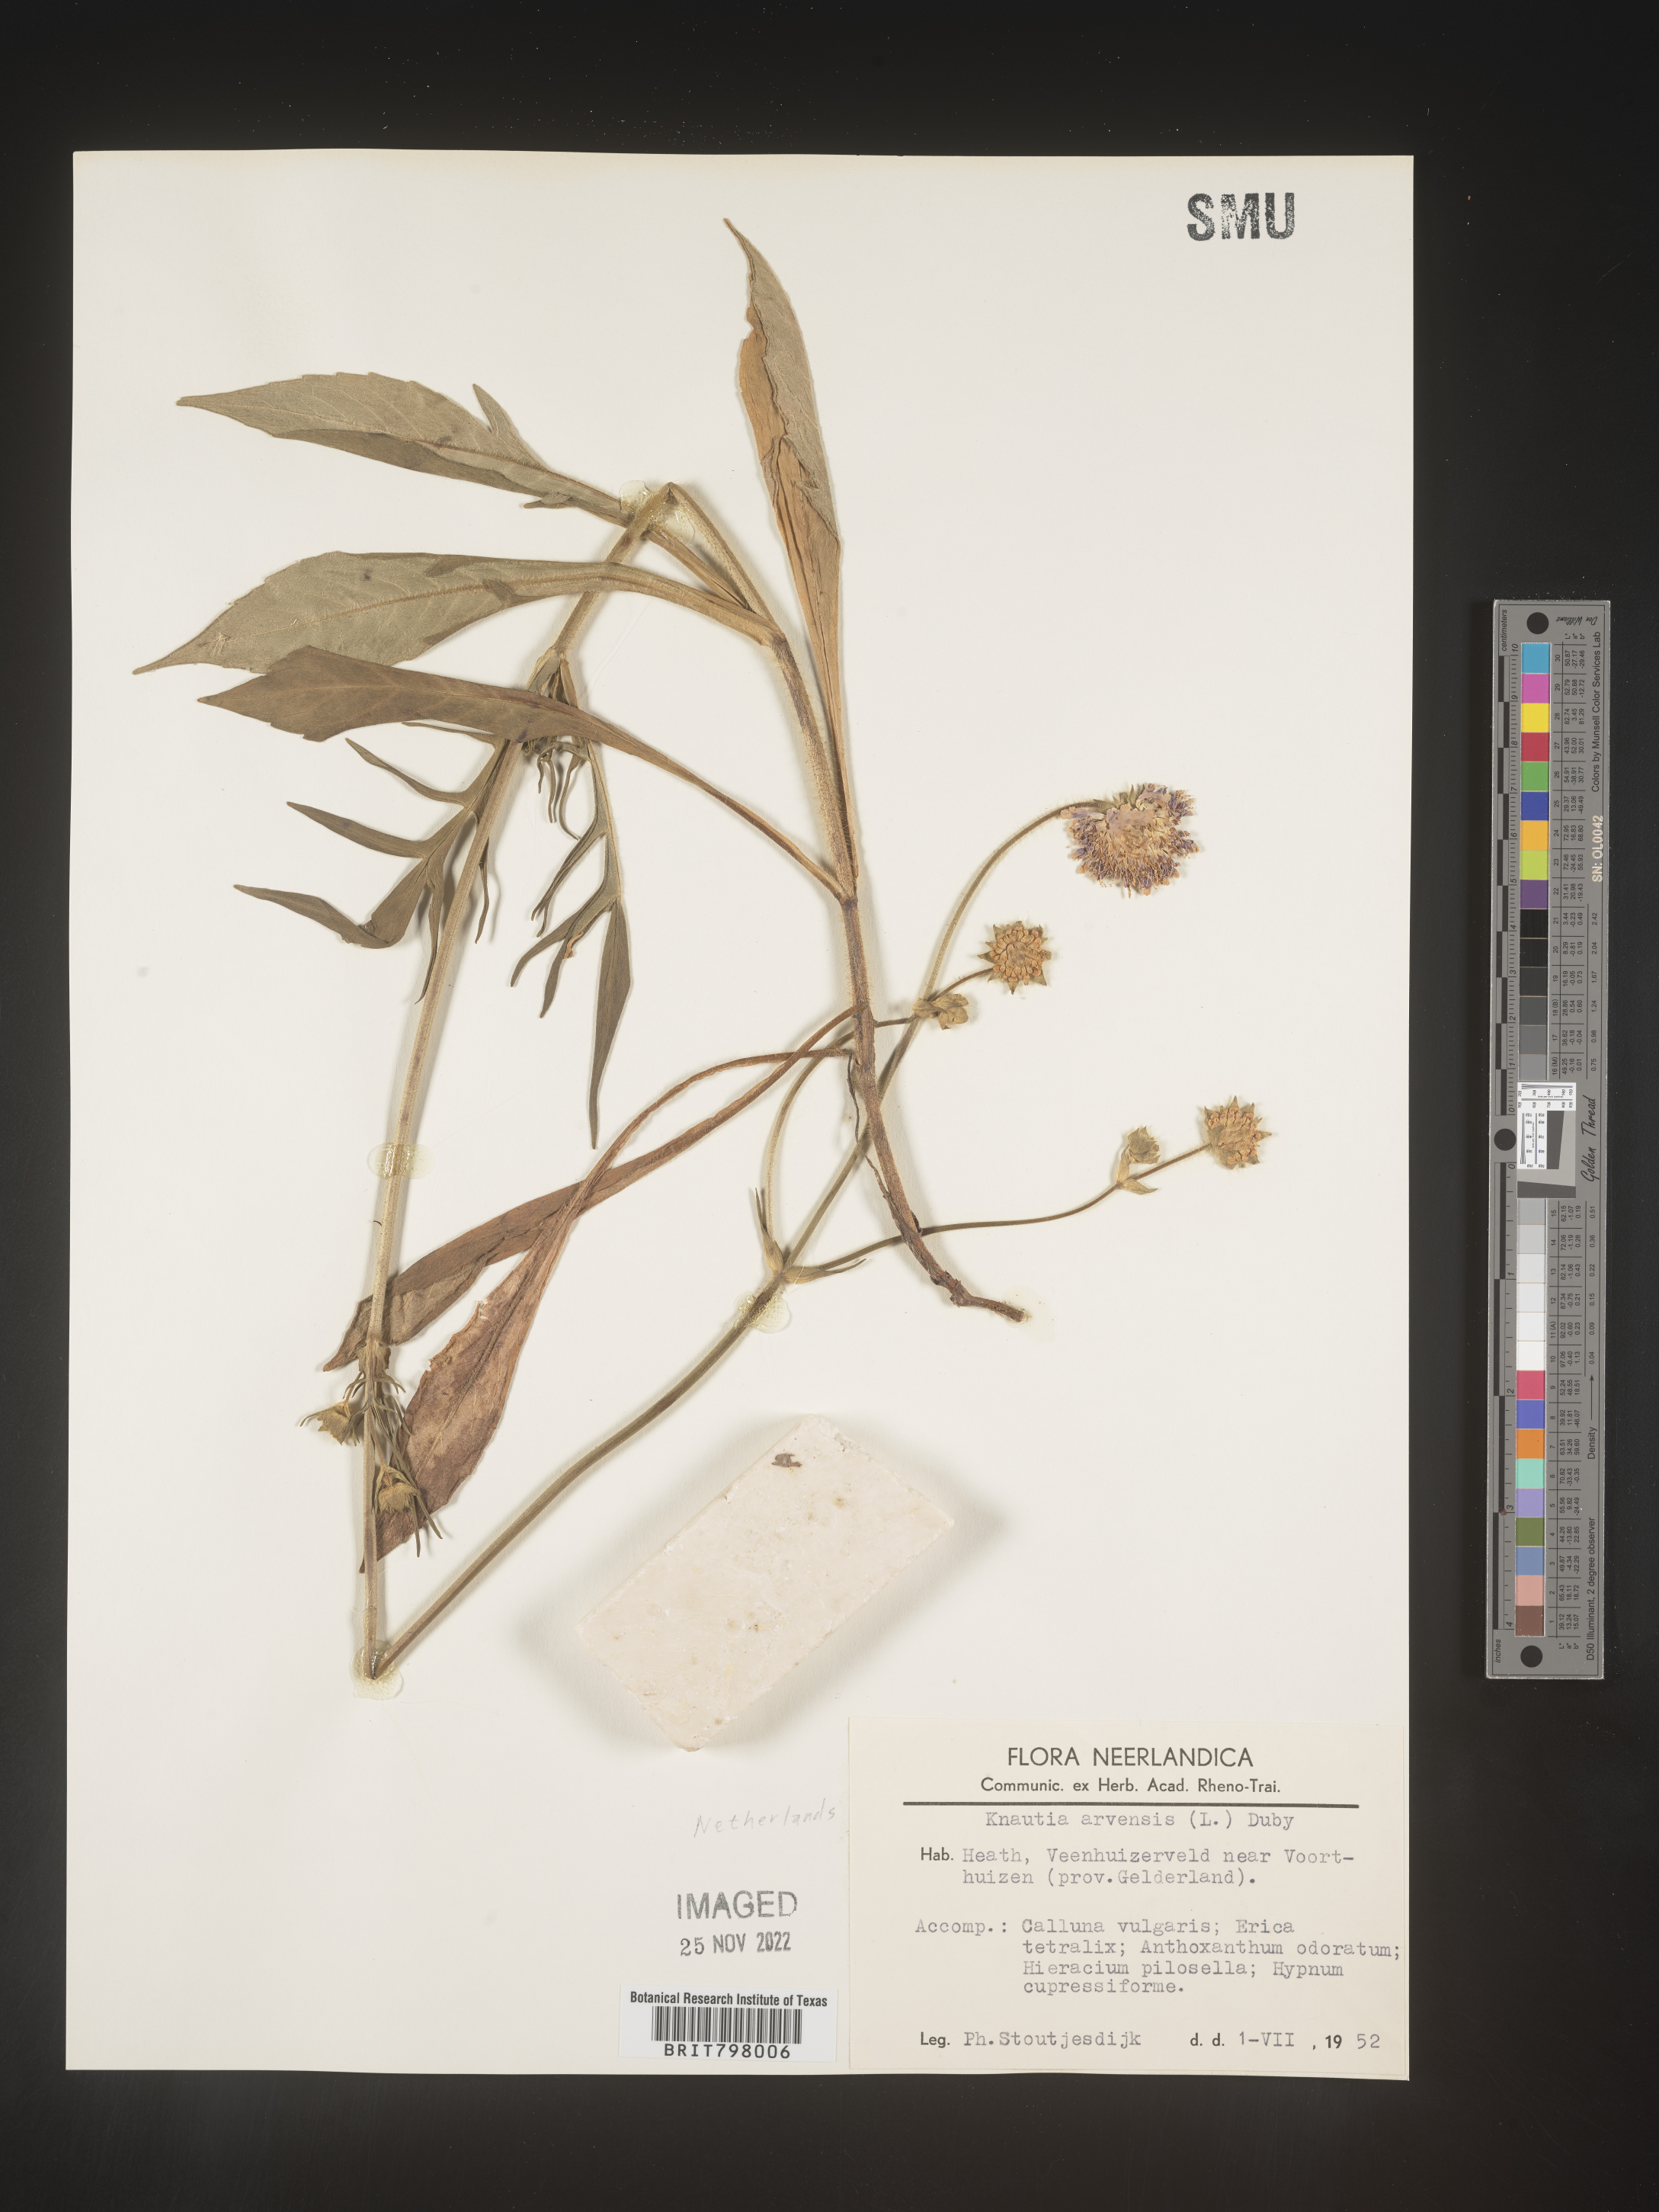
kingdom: Plantae
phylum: Tracheophyta
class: Magnoliopsida
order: Dipsacales
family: Caprifoliaceae
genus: Knautia
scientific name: Knautia
